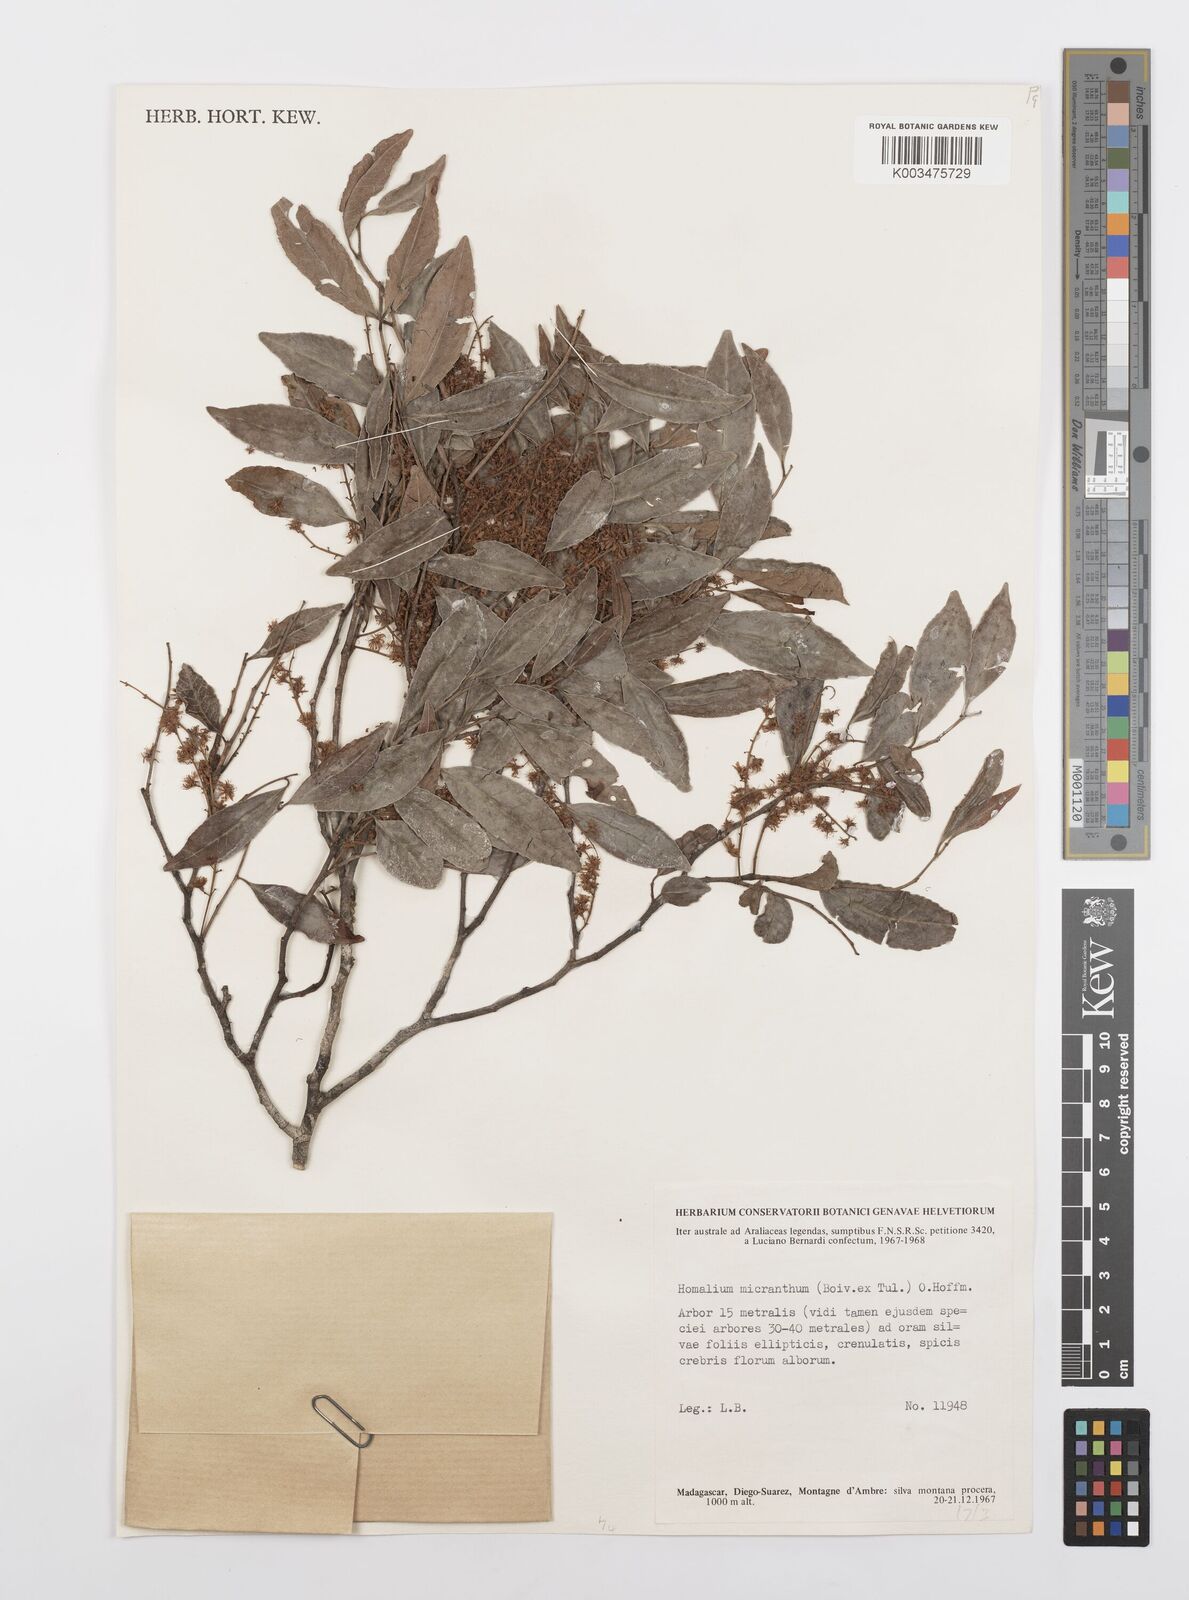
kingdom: Plantae
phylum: Tracheophyta
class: Magnoliopsida
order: Malpighiales
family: Salicaceae
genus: Homalium
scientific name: Homalium micranthum
